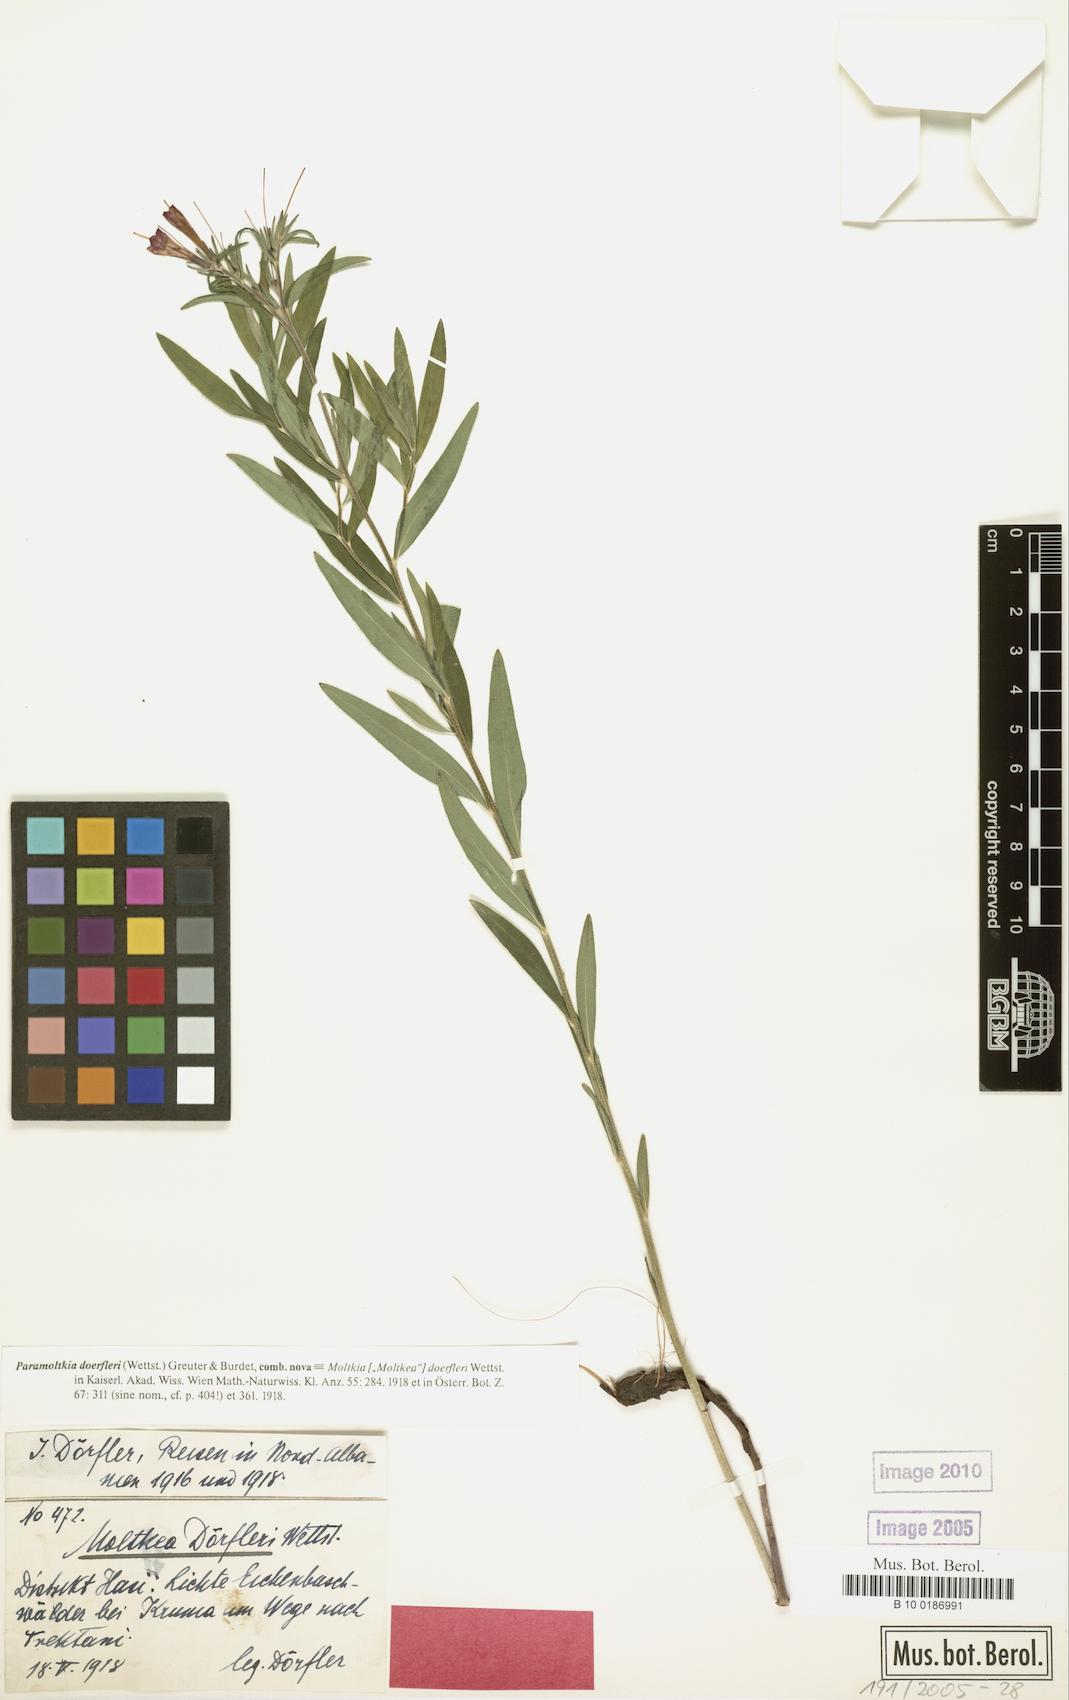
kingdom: Plantae
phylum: Tracheophyta
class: Magnoliopsida
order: Boraginales
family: Boraginaceae
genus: Paramoltkia
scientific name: Paramoltkia doerfleri
